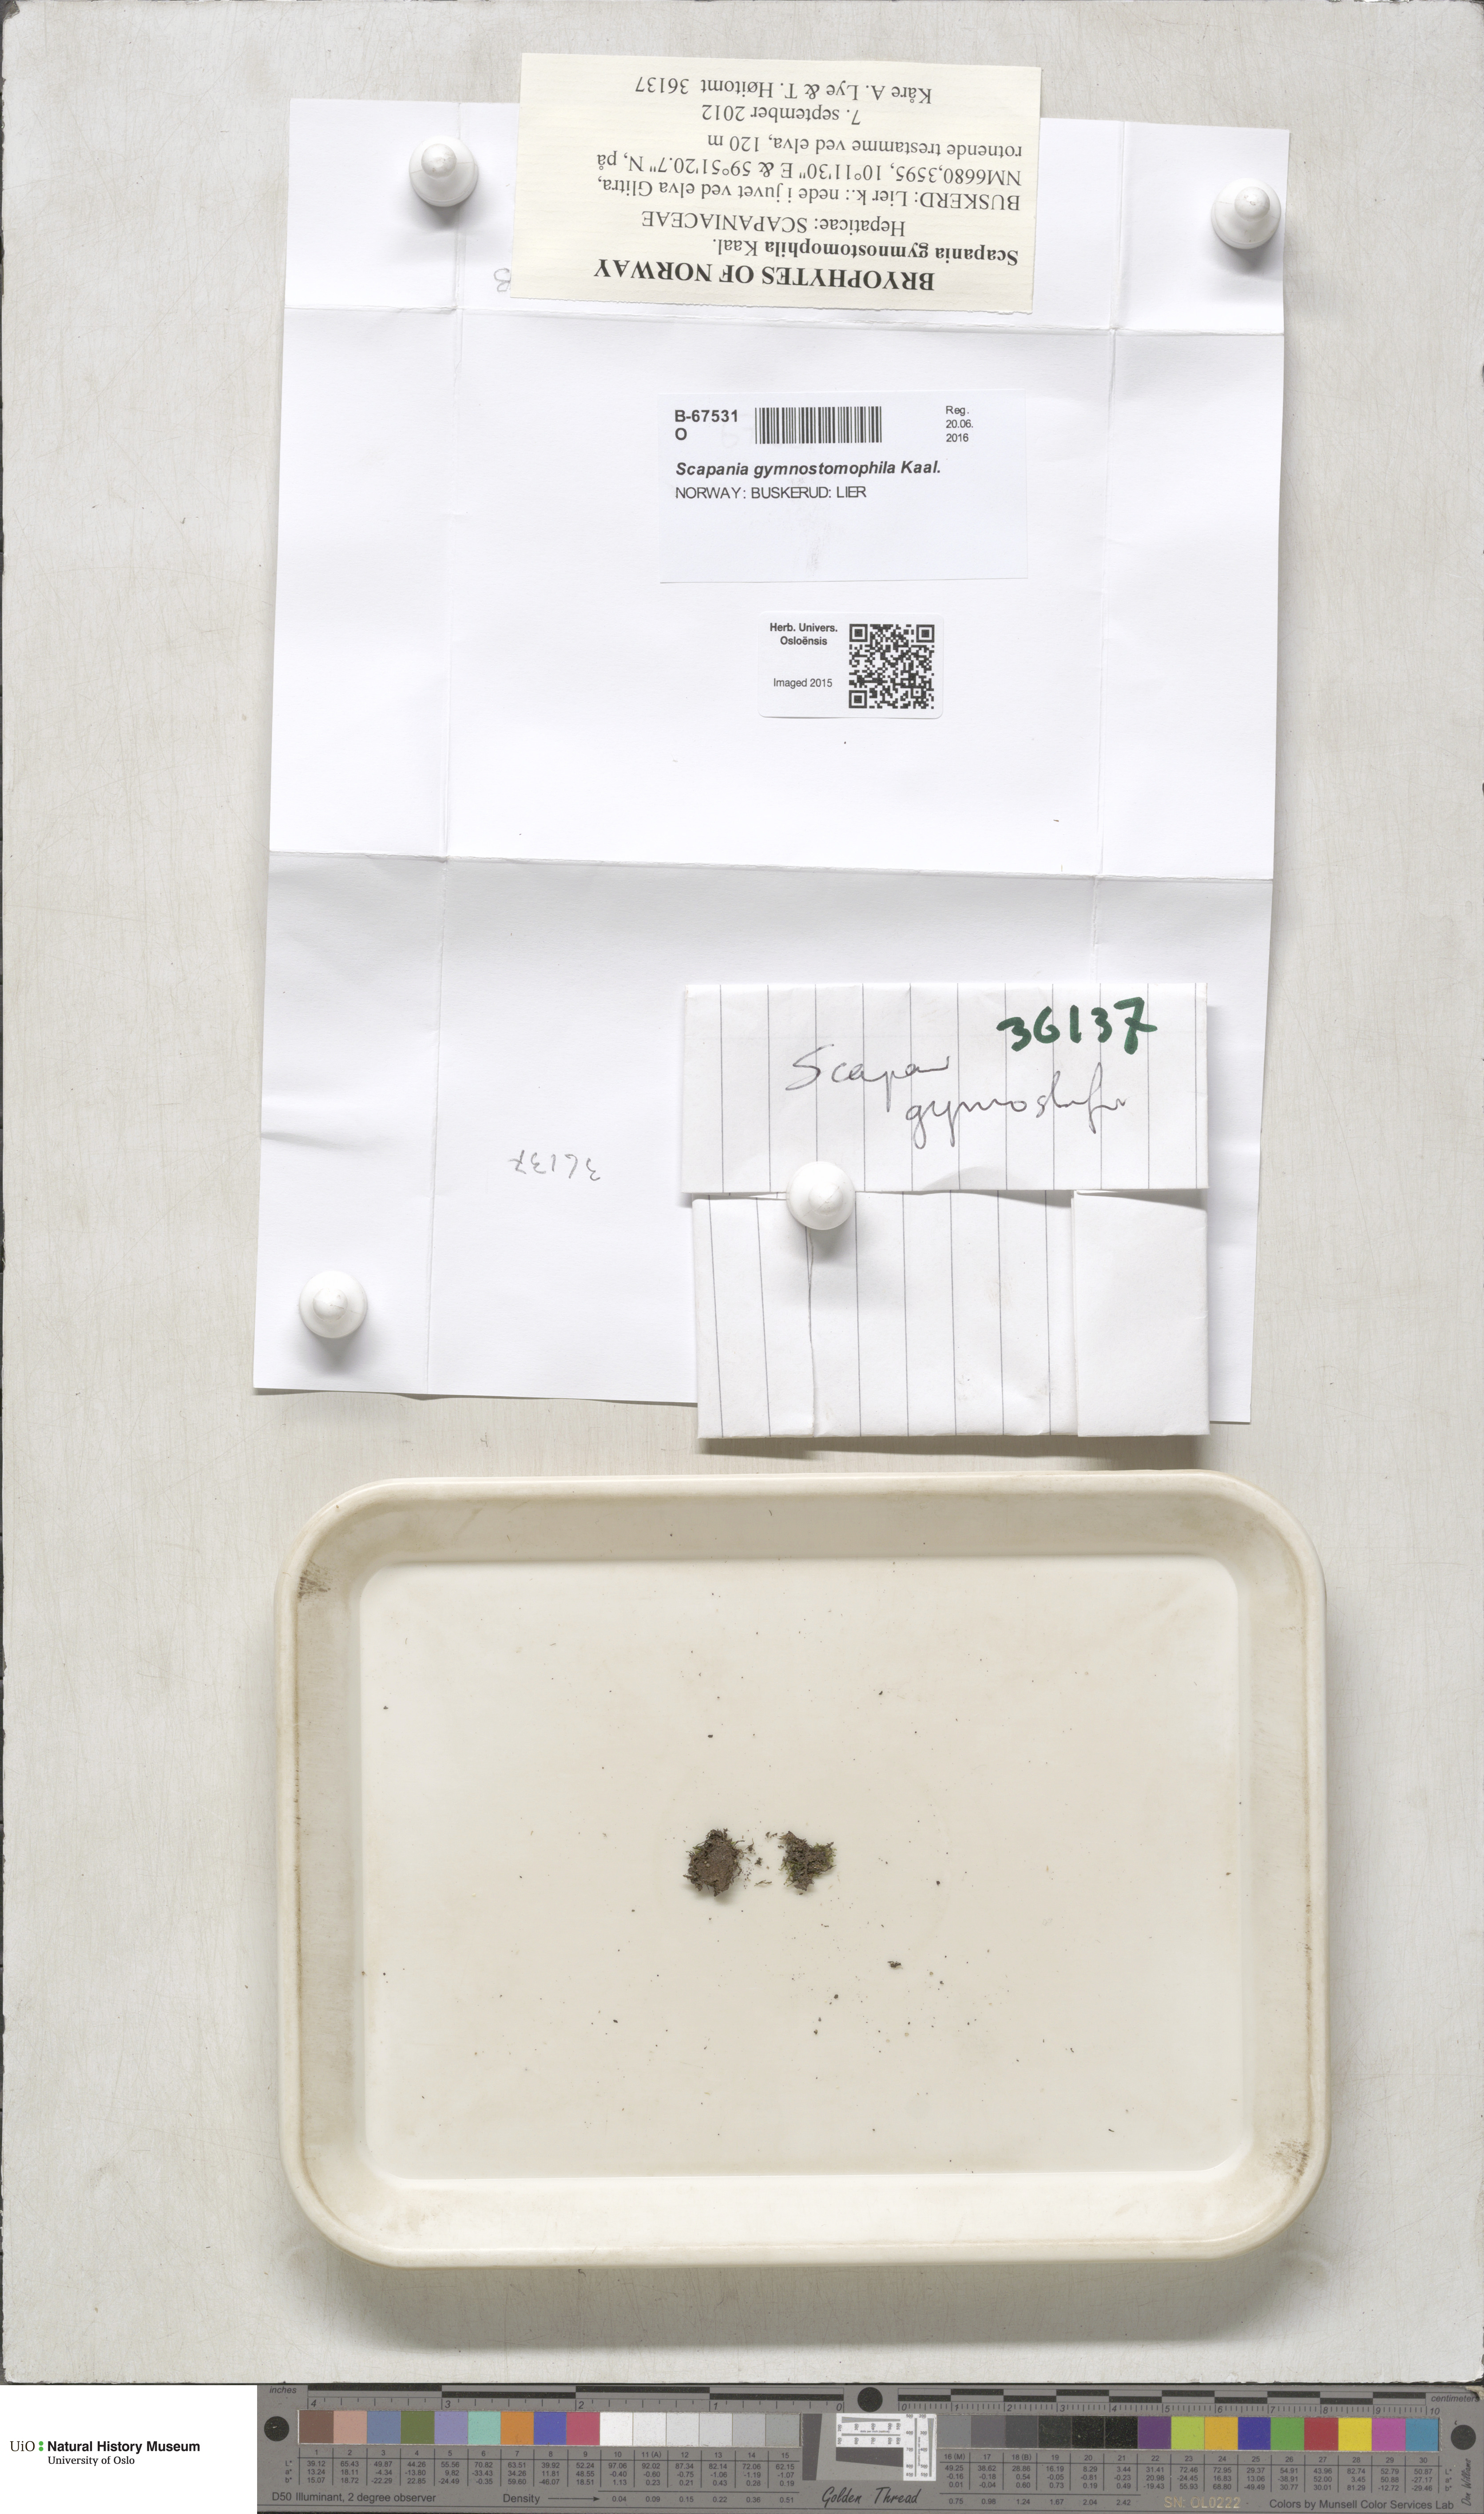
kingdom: Plantae
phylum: Marchantiophyta
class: Jungermanniopsida
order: Jungermanniales
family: Scapaniaceae
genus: Scapania
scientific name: Scapania gymnostomophila
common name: Narrow-lobed earwort
